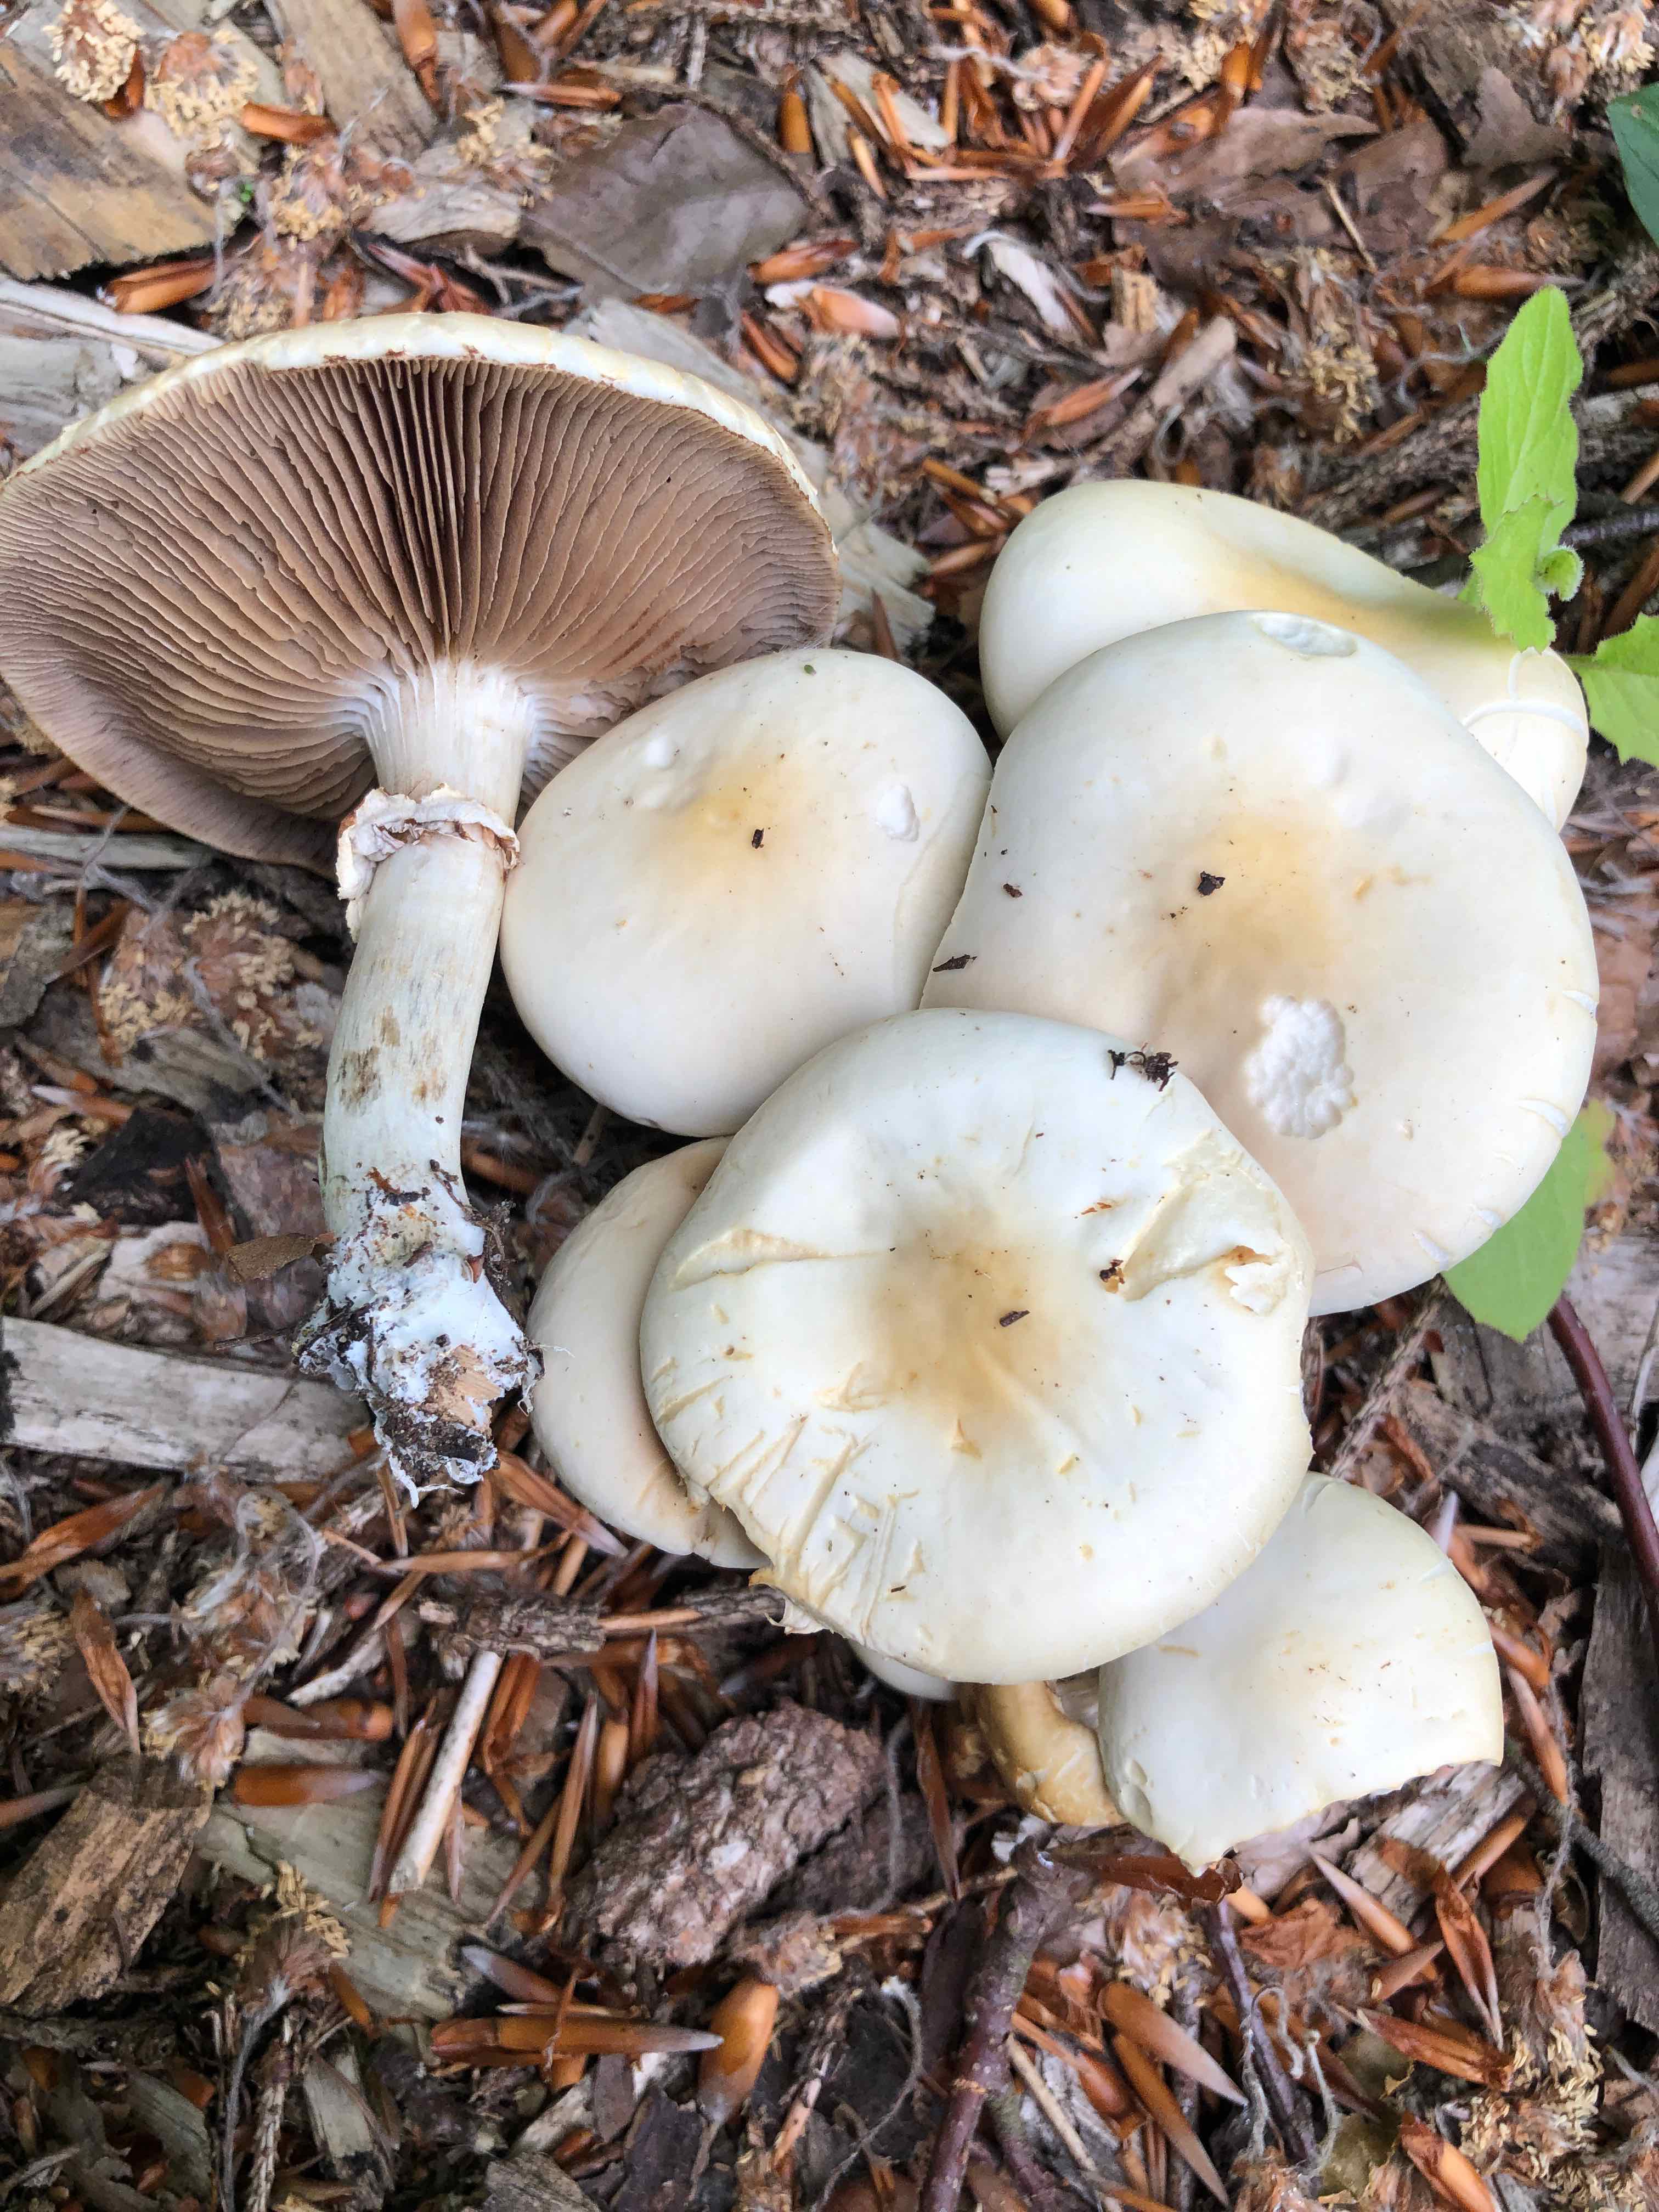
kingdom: Fungi
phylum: Basidiomycota
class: Agaricomycetes
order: Agaricales
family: Strophariaceae
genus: Agrocybe
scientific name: Agrocybe praecox
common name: tidlig agerhat
